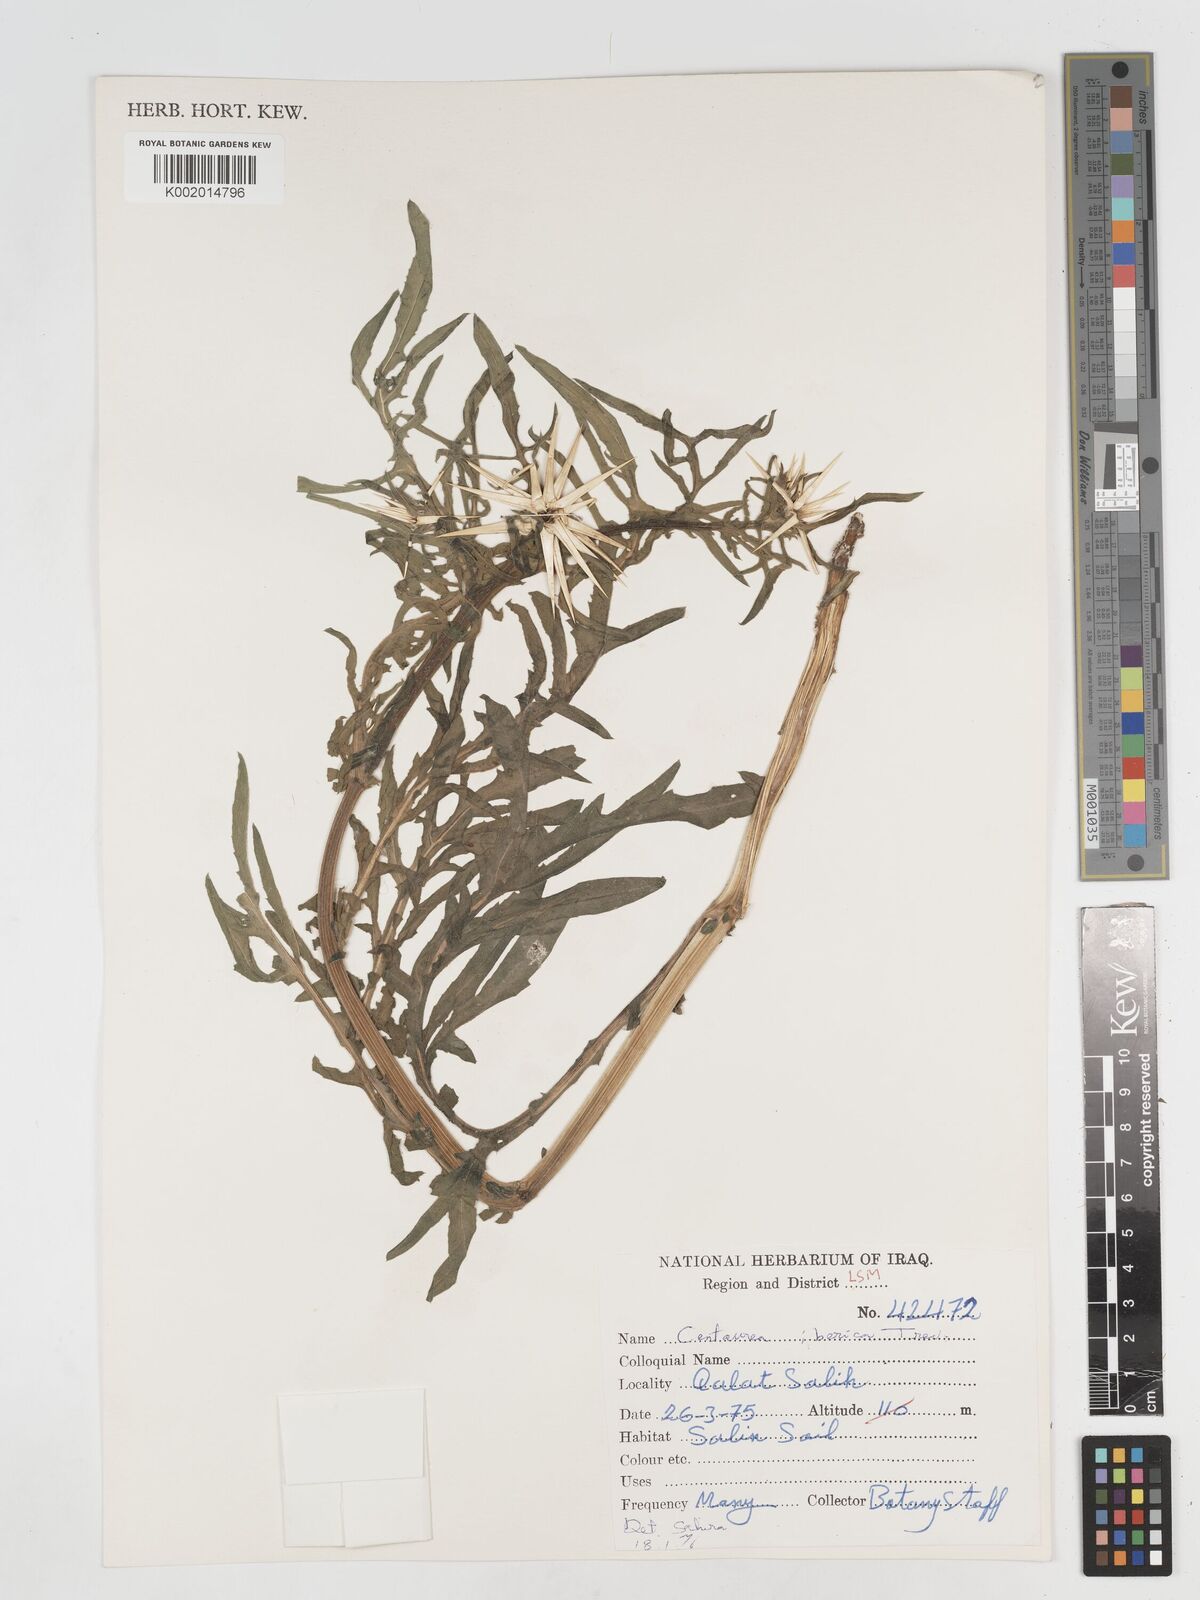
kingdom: Plantae
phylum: Tracheophyta
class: Magnoliopsida
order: Asterales
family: Asteraceae
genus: Centaurea
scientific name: Centaurea iberica
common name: Iberian knapweed
